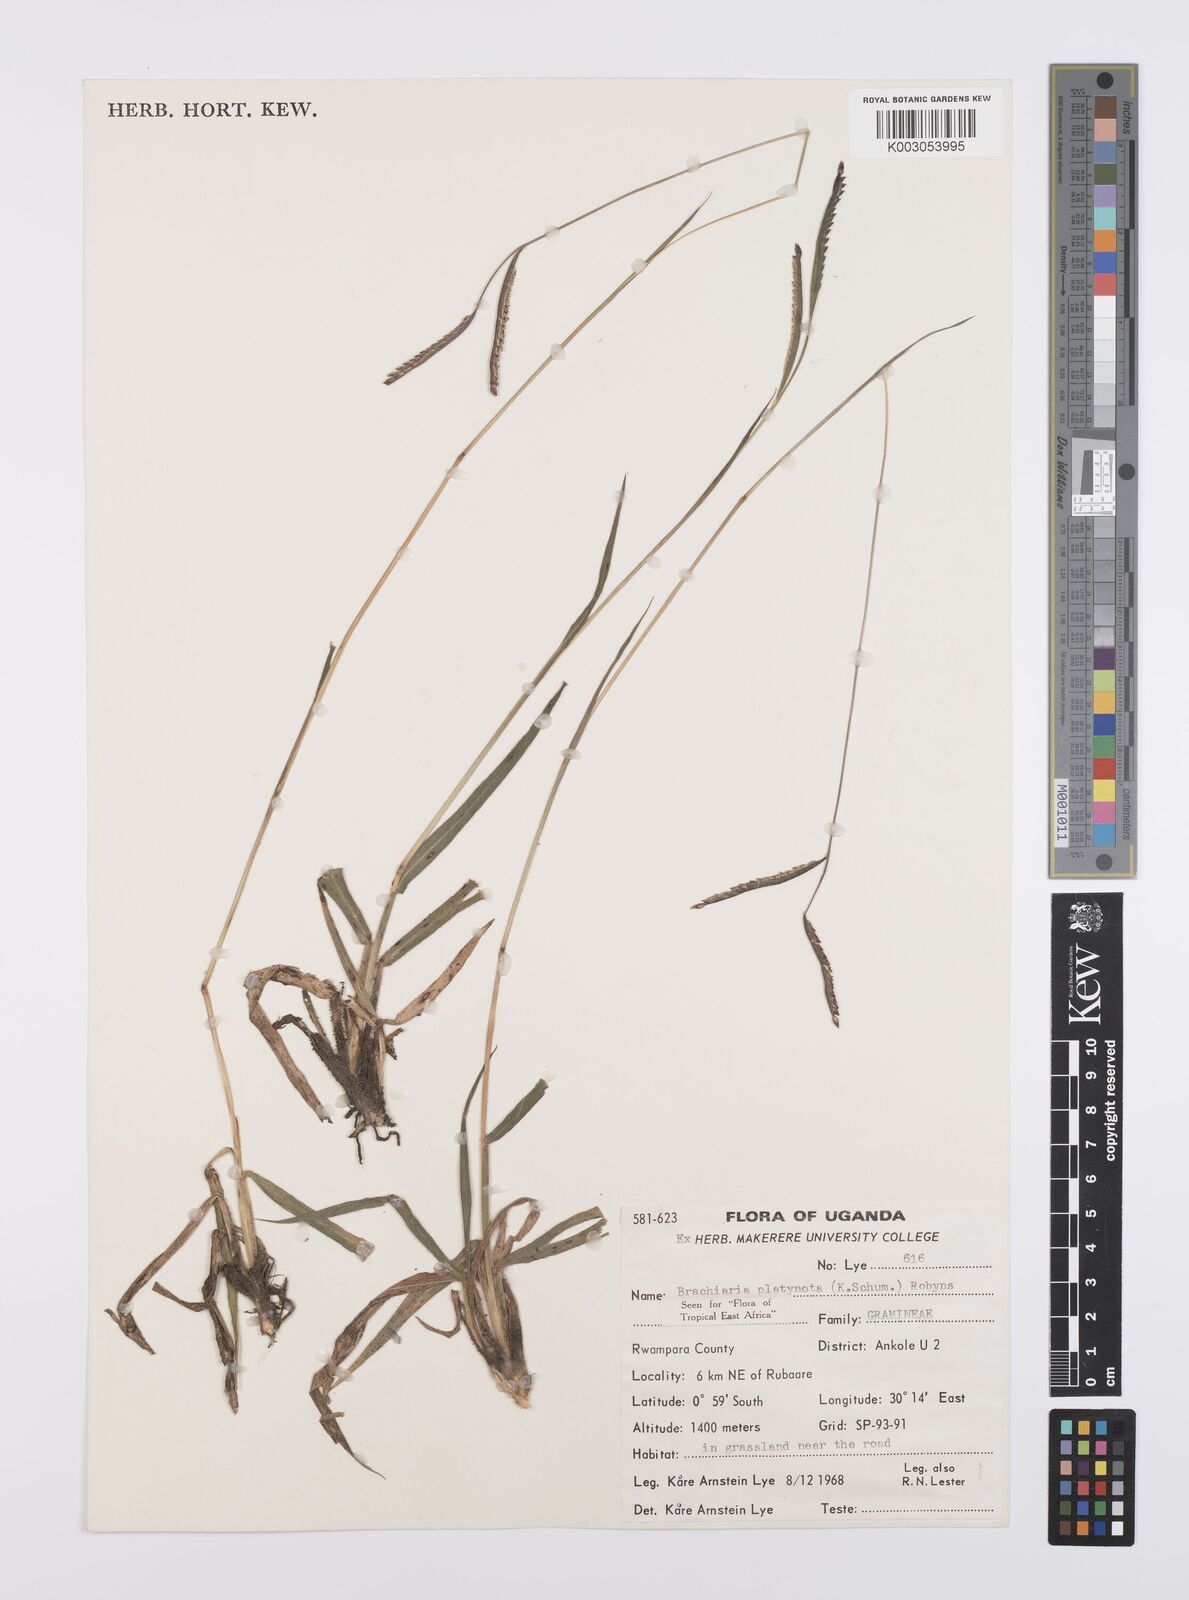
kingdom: Plantae
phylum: Tracheophyta
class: Liliopsida
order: Poales
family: Poaceae
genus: Urochloa
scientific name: Urochloa platynota
